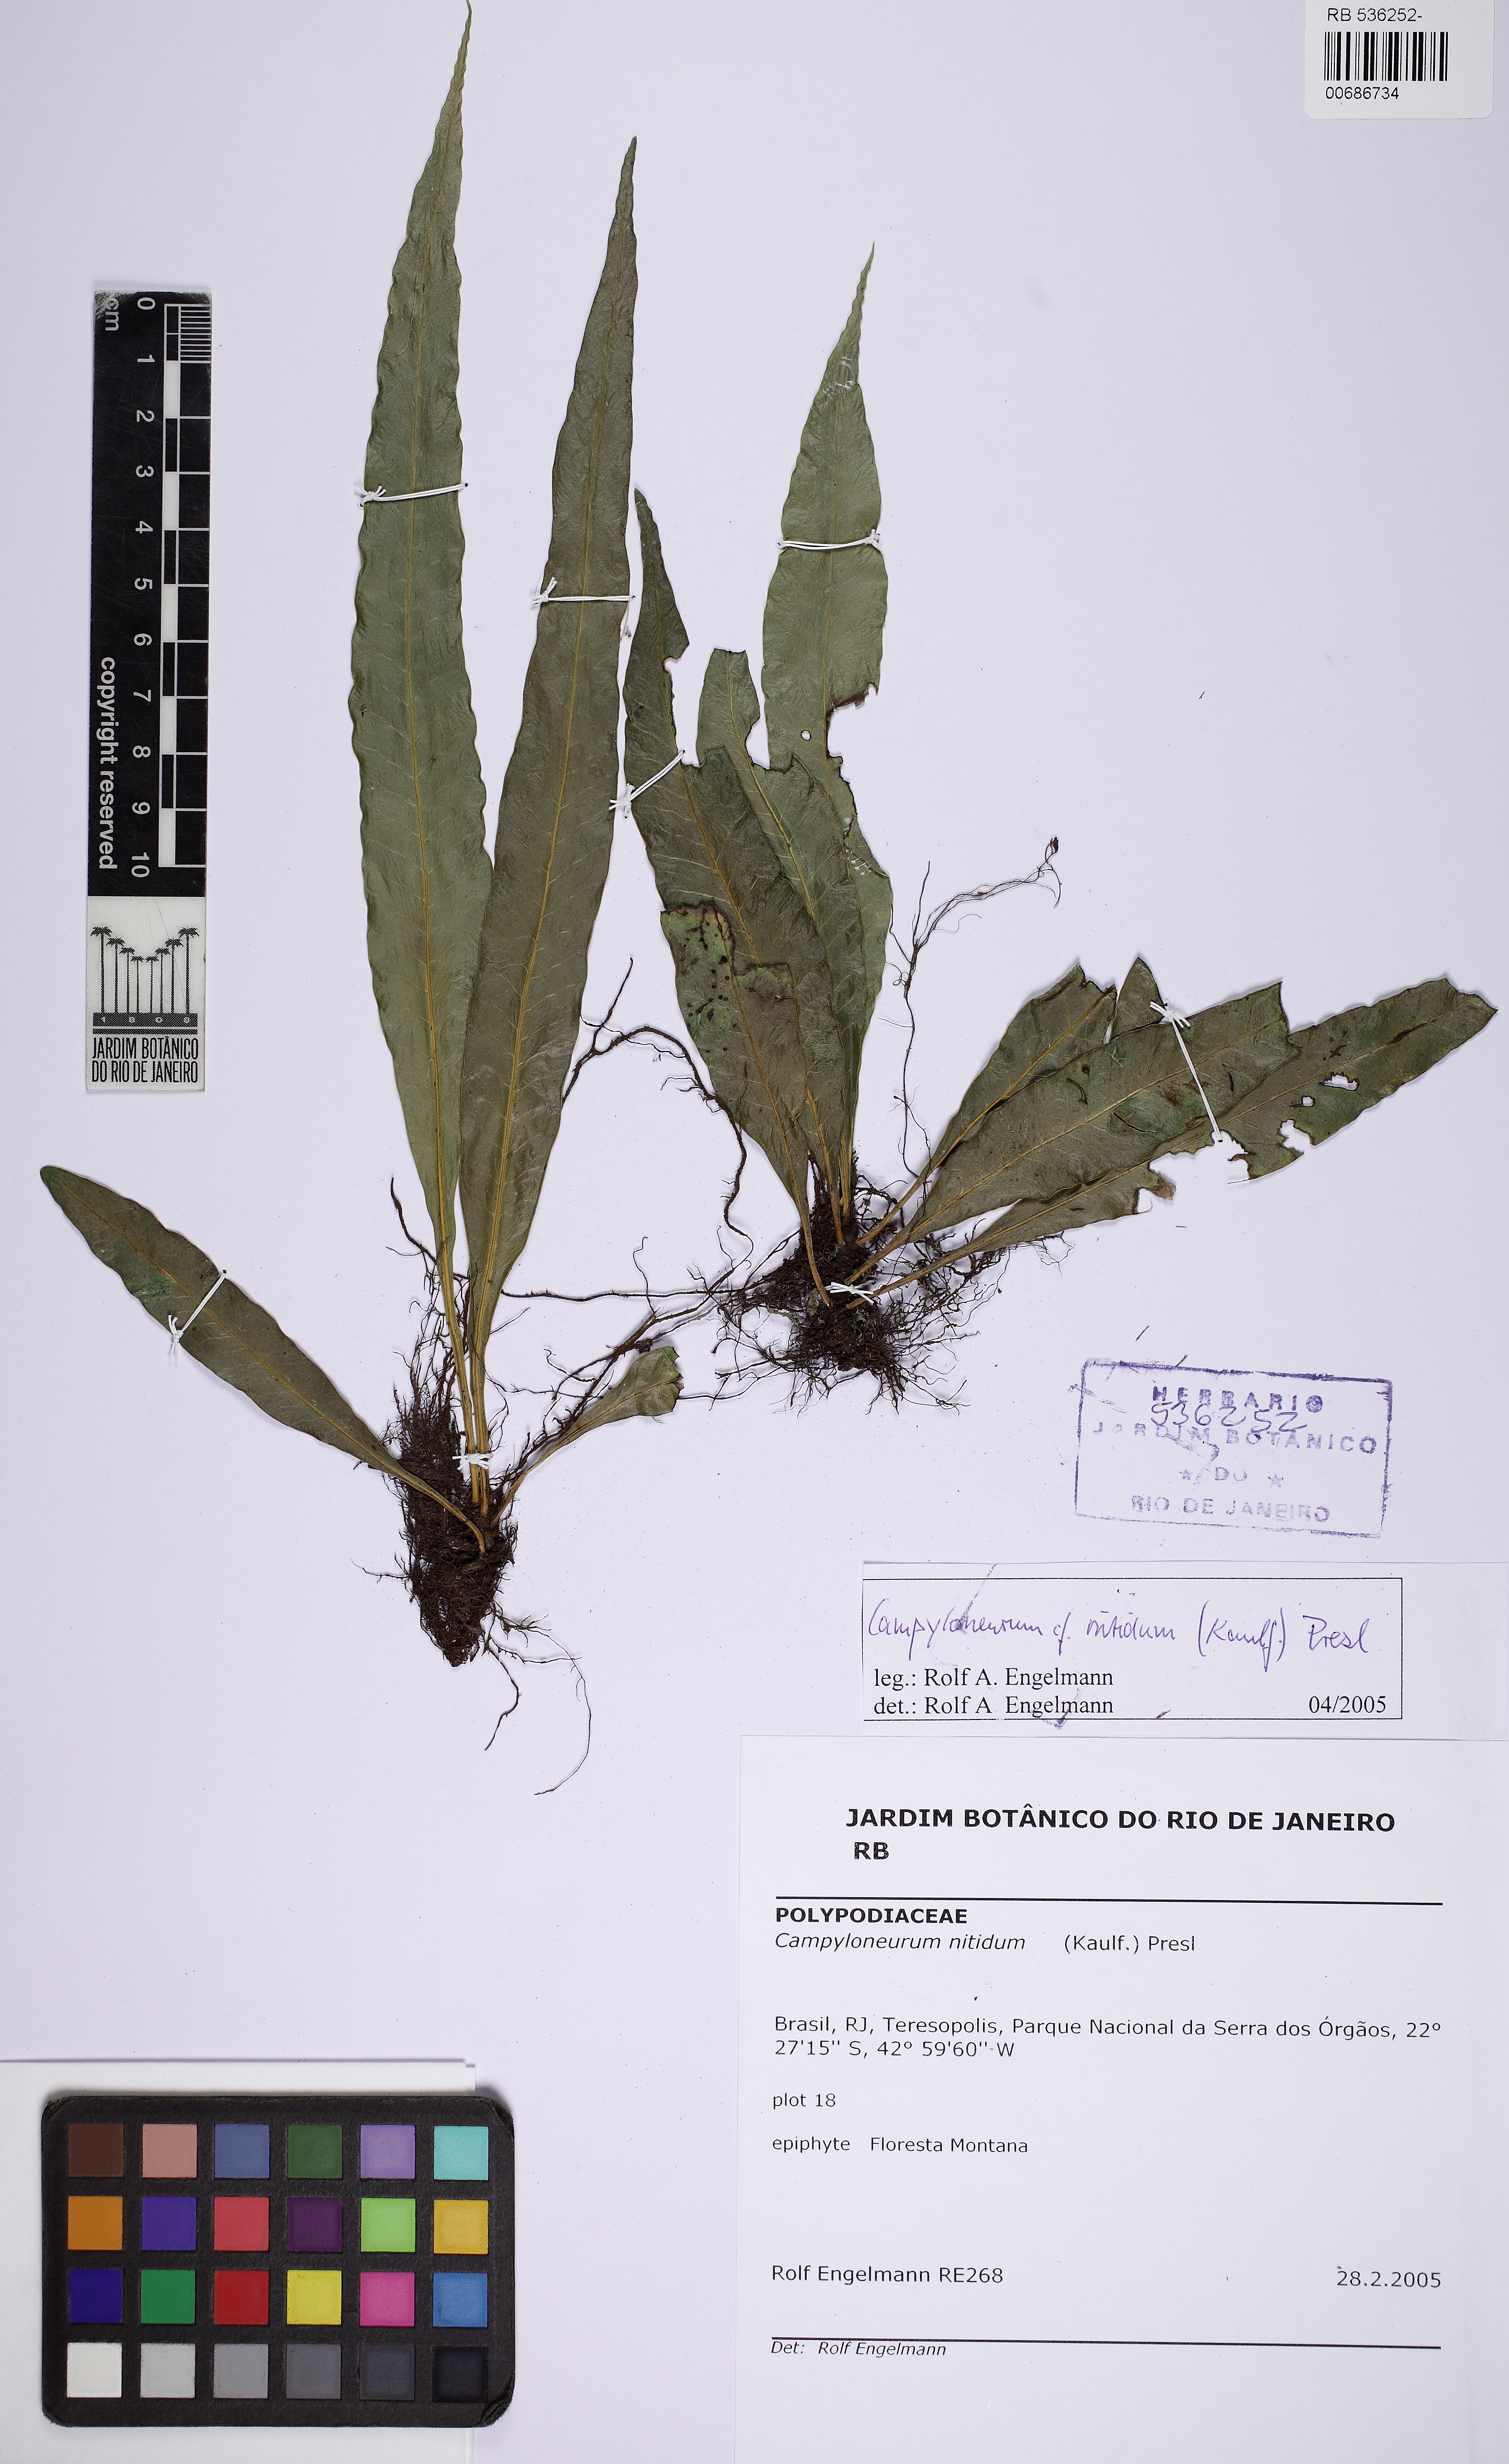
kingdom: Plantae
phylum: Tracheophyta
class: Polypodiopsida
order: Polypodiales
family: Polypodiaceae
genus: Campyloneurum
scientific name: Campyloneurum nitidum
